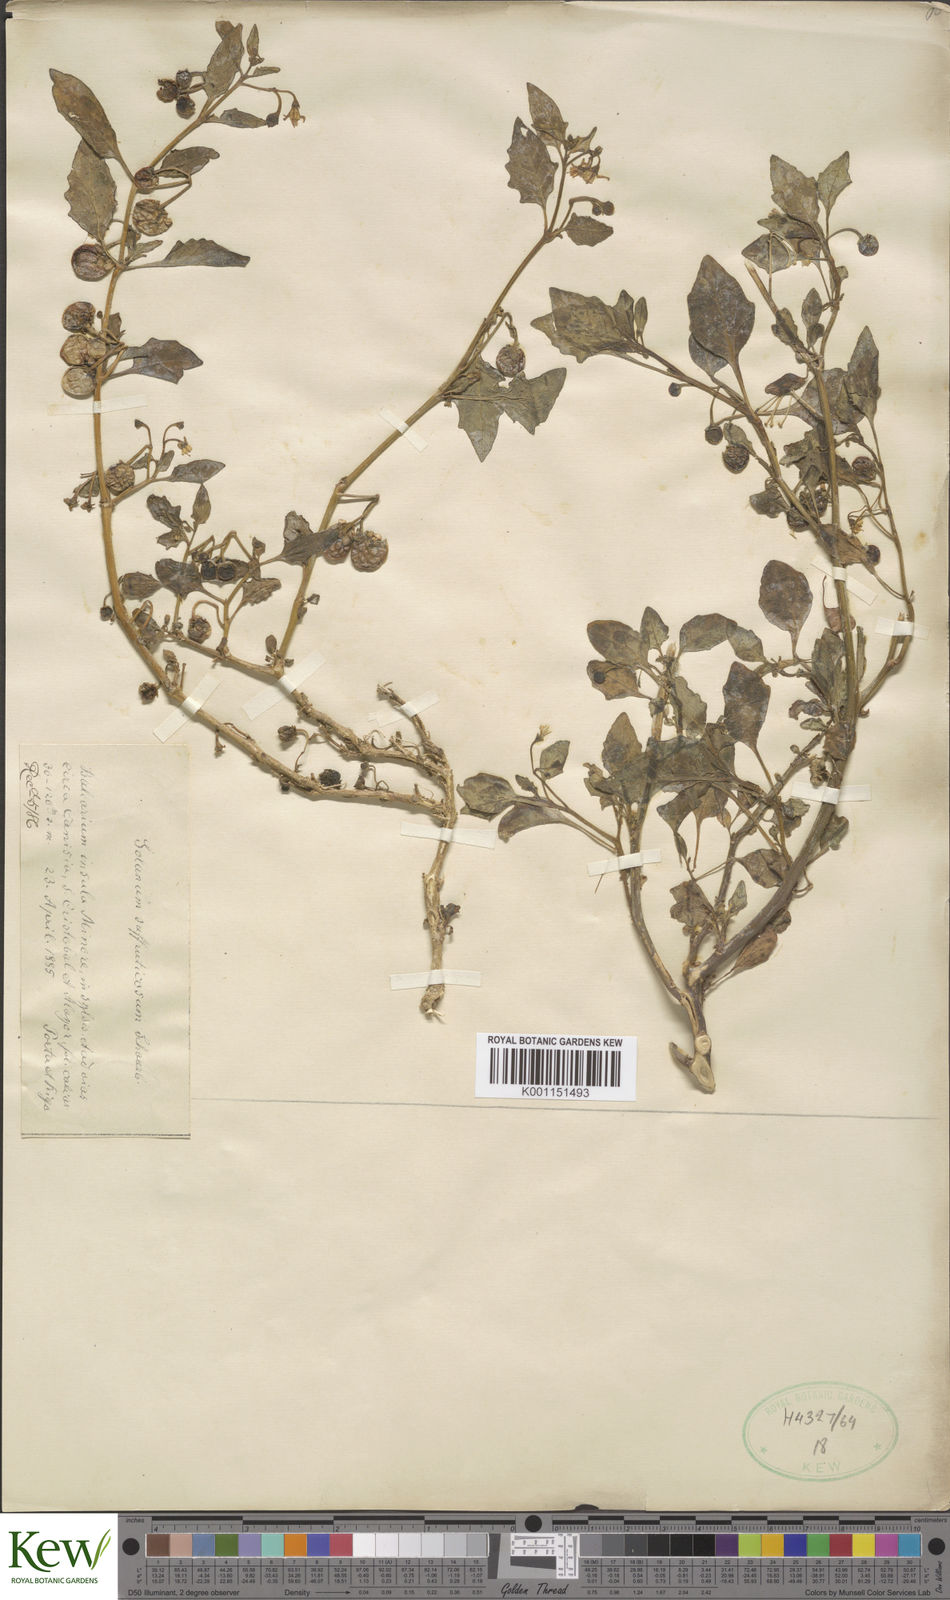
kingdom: Plantae
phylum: Tracheophyta
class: Magnoliopsida
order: Solanales
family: Solanaceae
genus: Solanum
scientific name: Solanum nigrum
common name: Black nightshade
